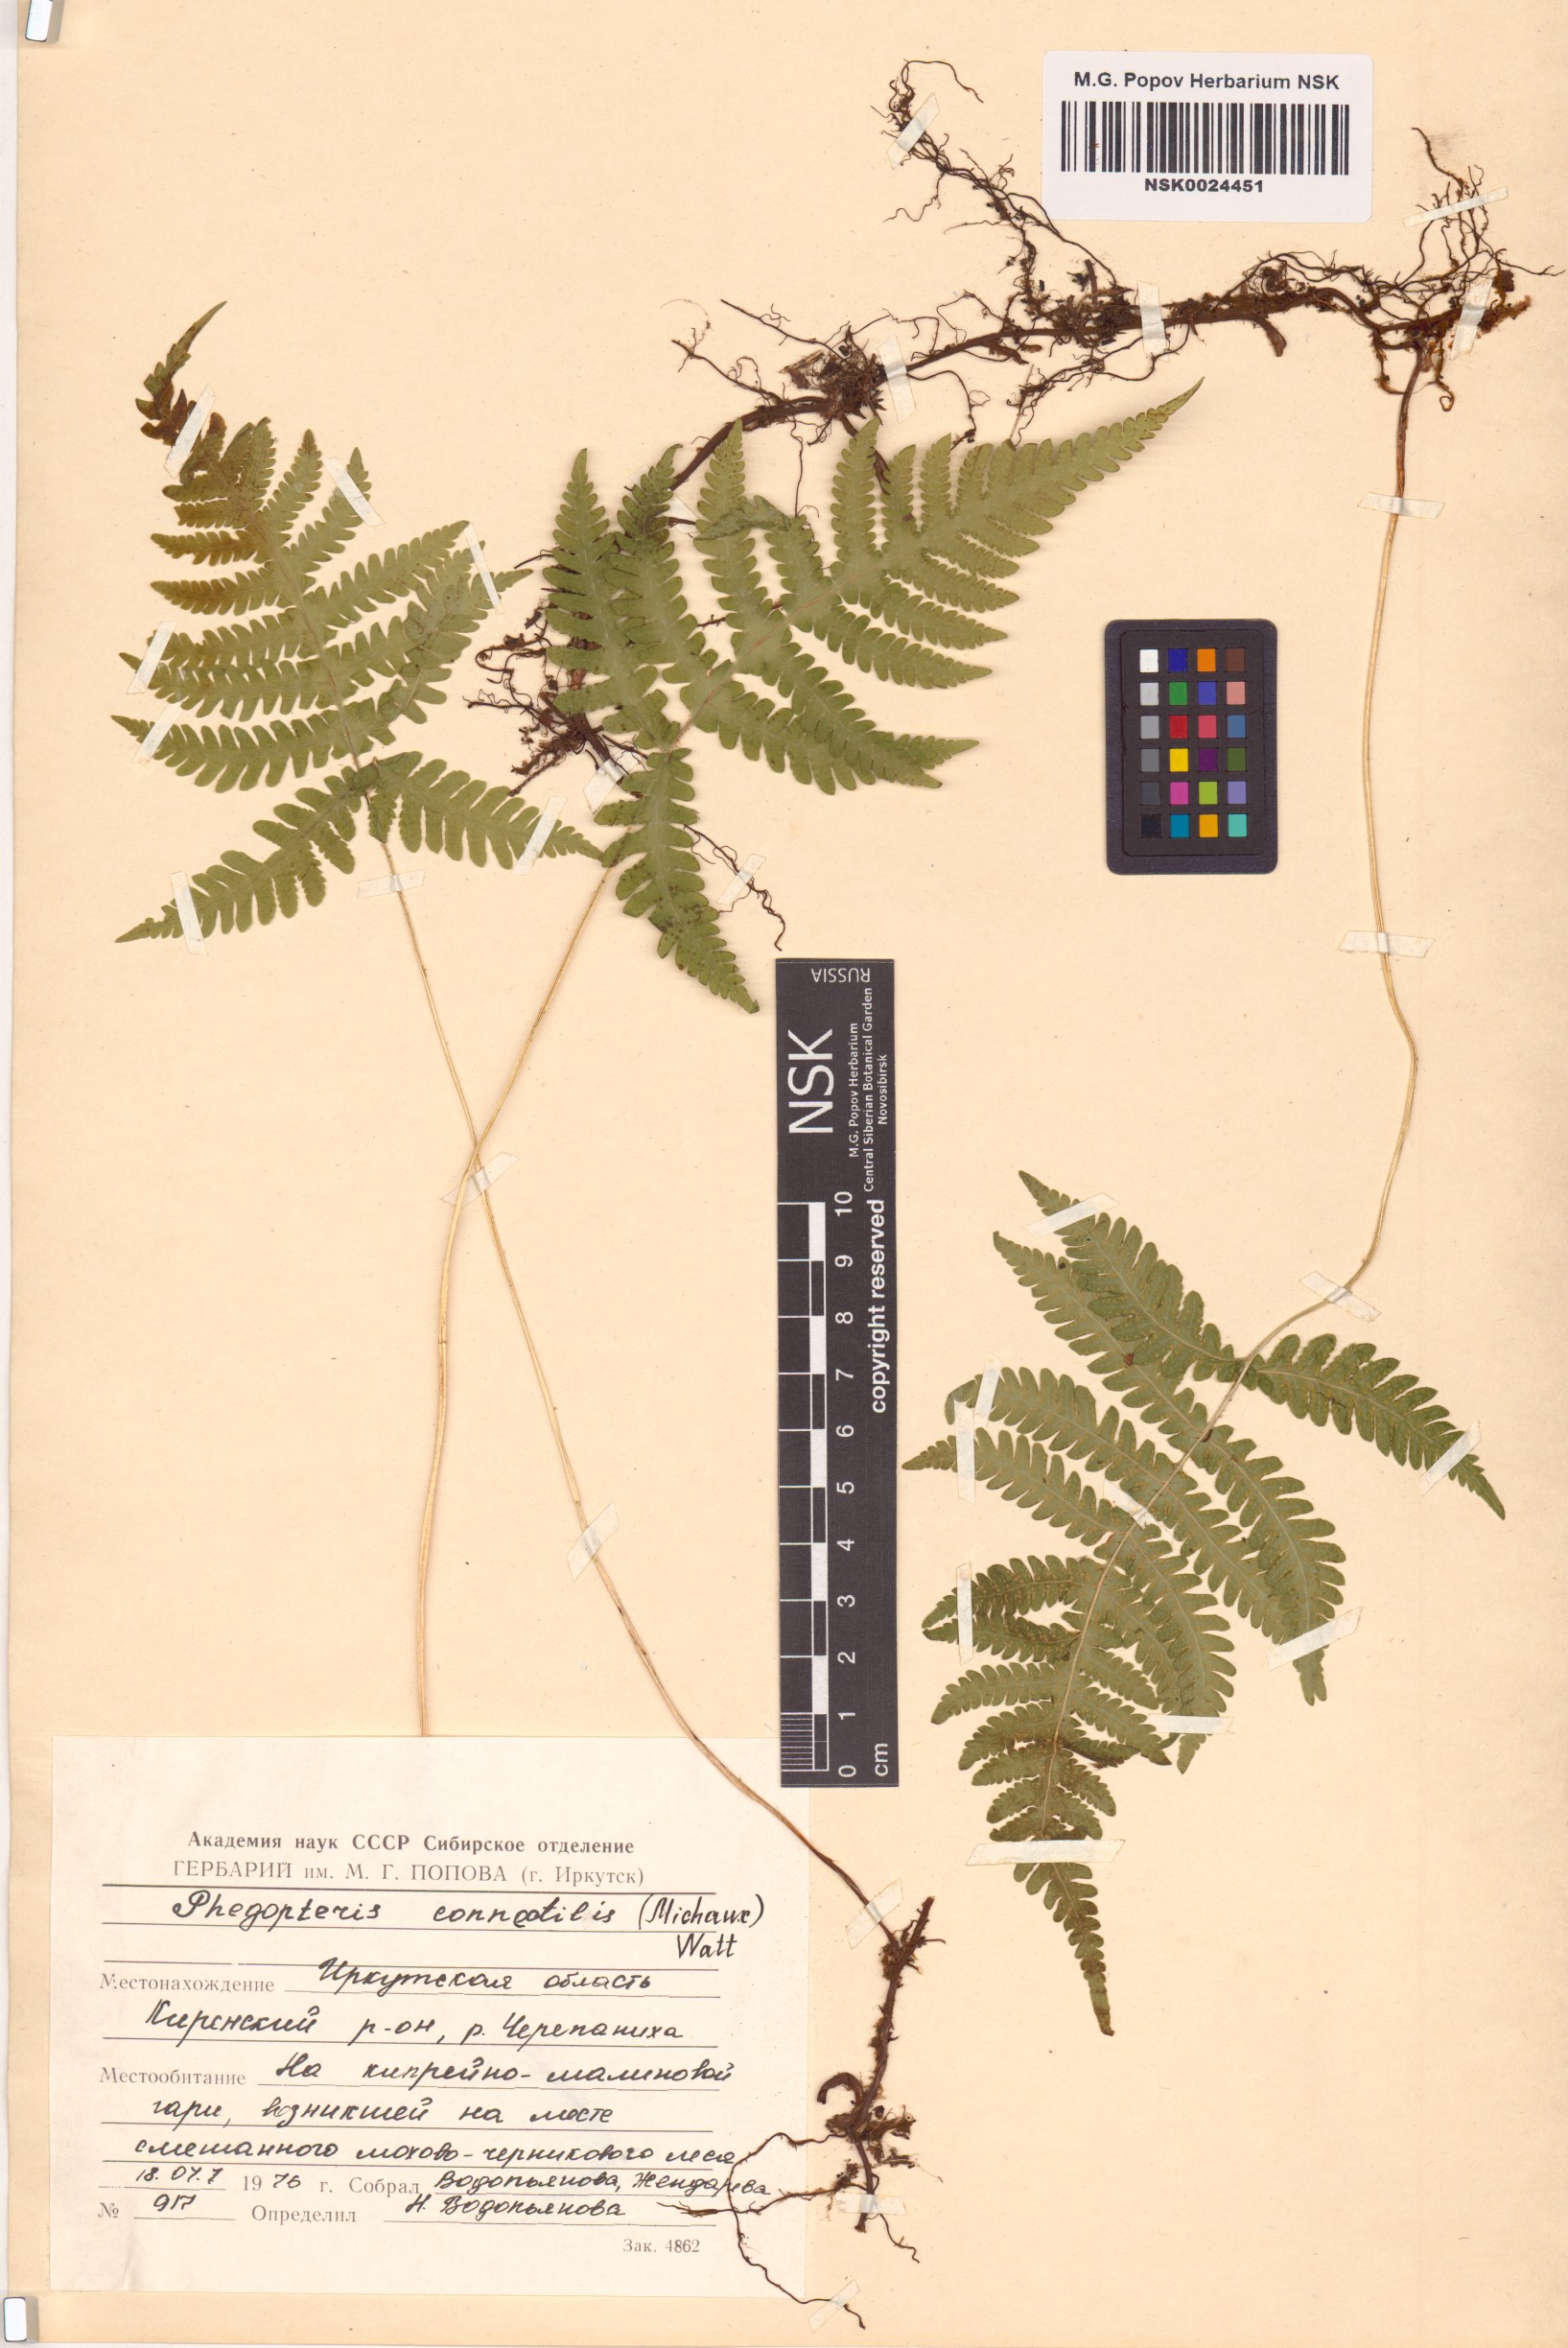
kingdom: Plantae
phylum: Tracheophyta
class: Polypodiopsida
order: Polypodiales
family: Thelypteridaceae
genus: Phegopteris
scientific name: Phegopteris connectilis
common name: Beech fern
